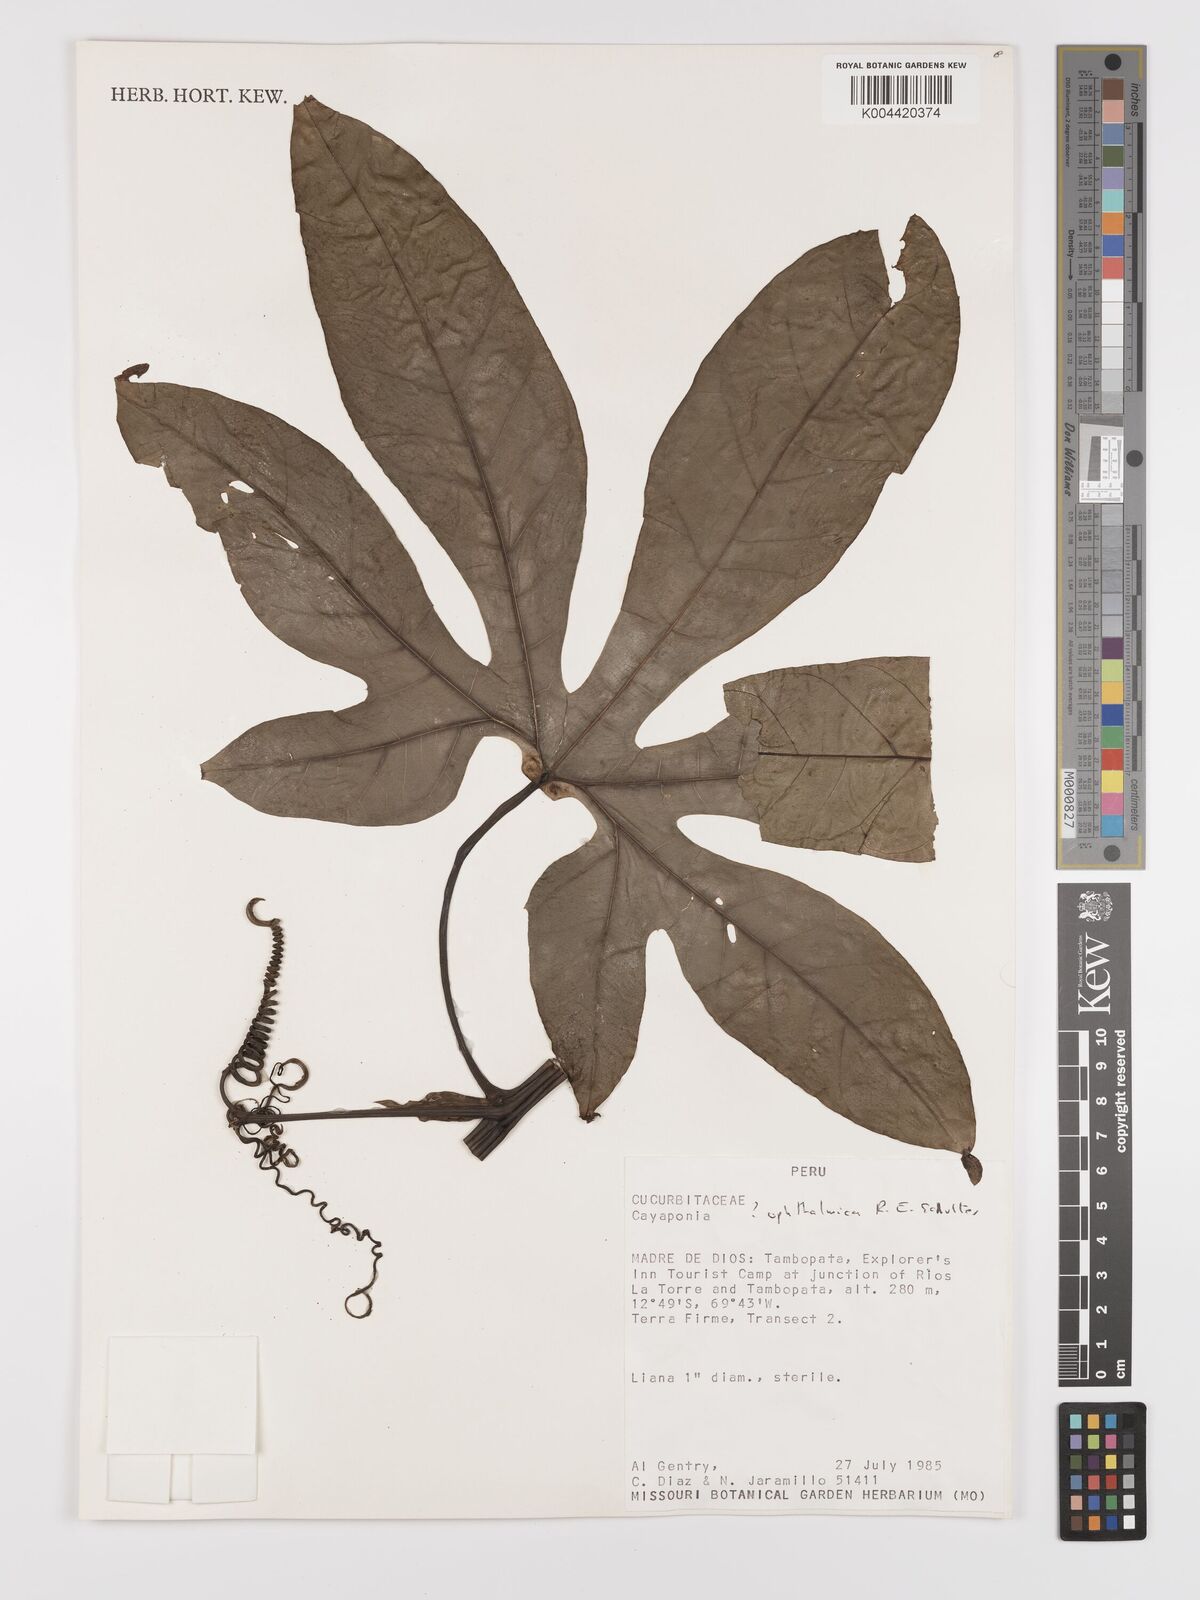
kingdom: Plantae
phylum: Tracheophyta
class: Magnoliopsida
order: Cucurbitales
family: Cucurbitaceae
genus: Cayaponia
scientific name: Cayaponia ophthalmica
